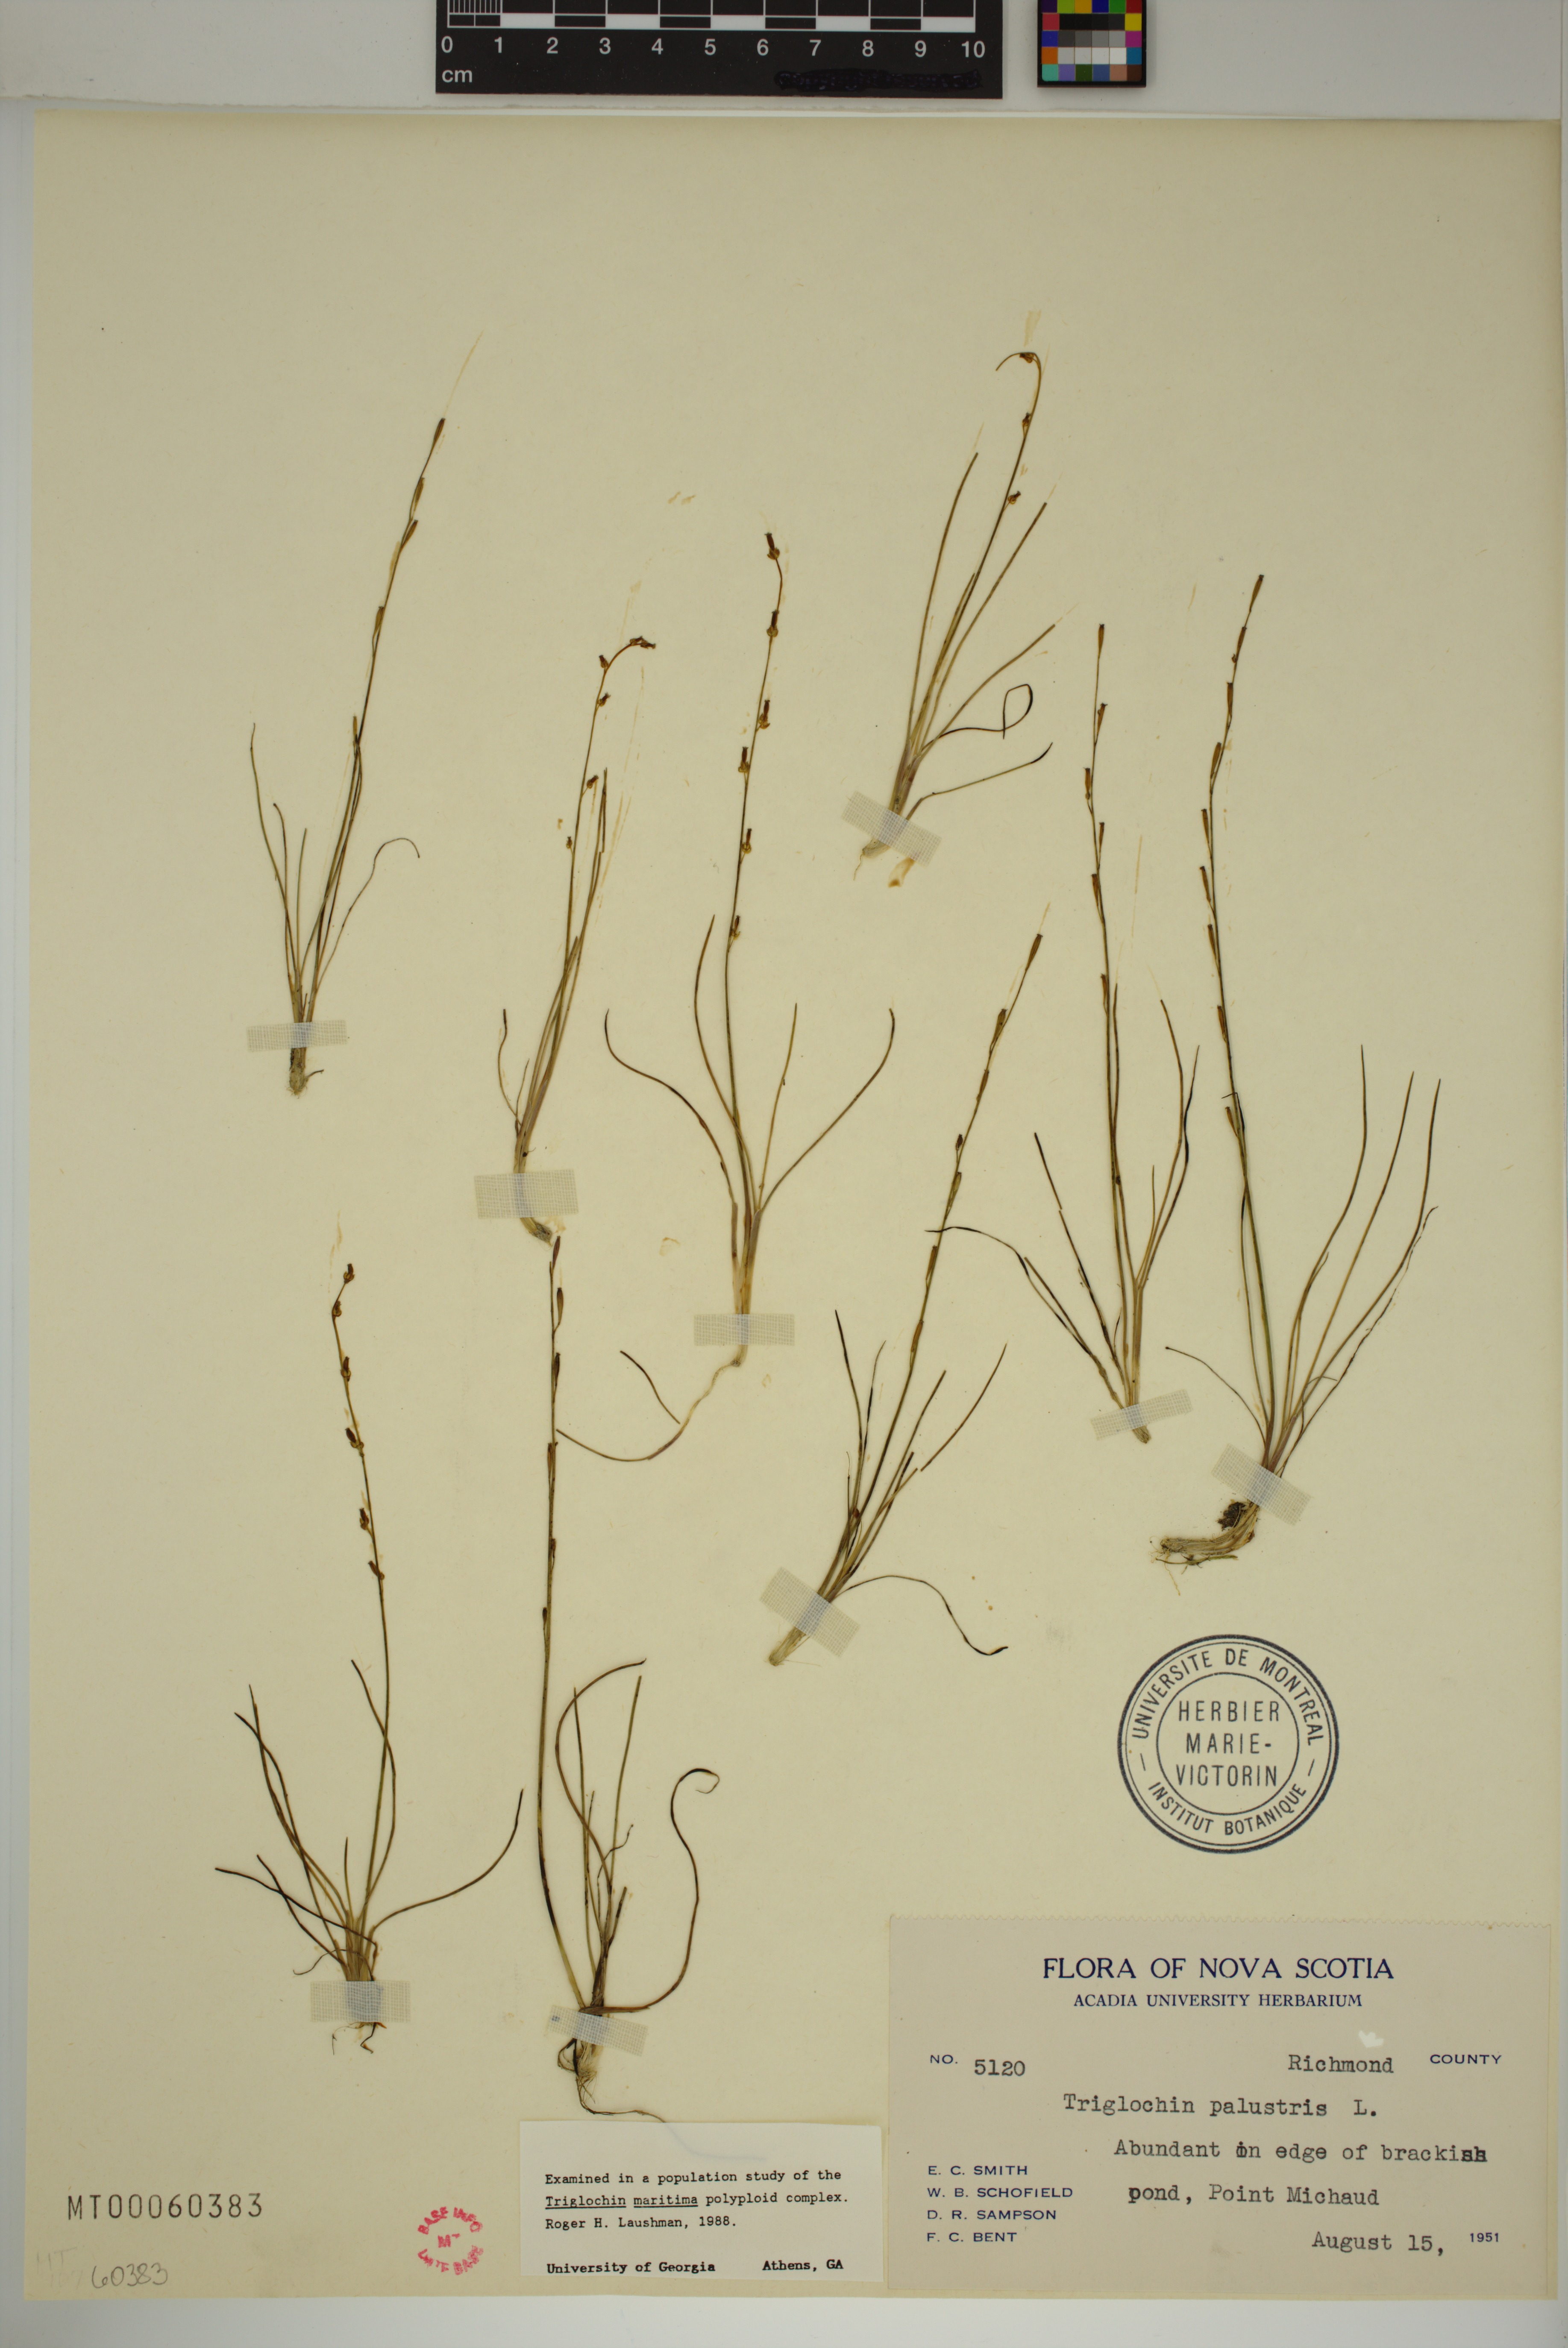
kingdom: Plantae
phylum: Tracheophyta
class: Liliopsida
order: Alismatales
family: Juncaginaceae
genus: Triglochin
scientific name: Triglochin palustris
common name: Marsh arrowgrass
